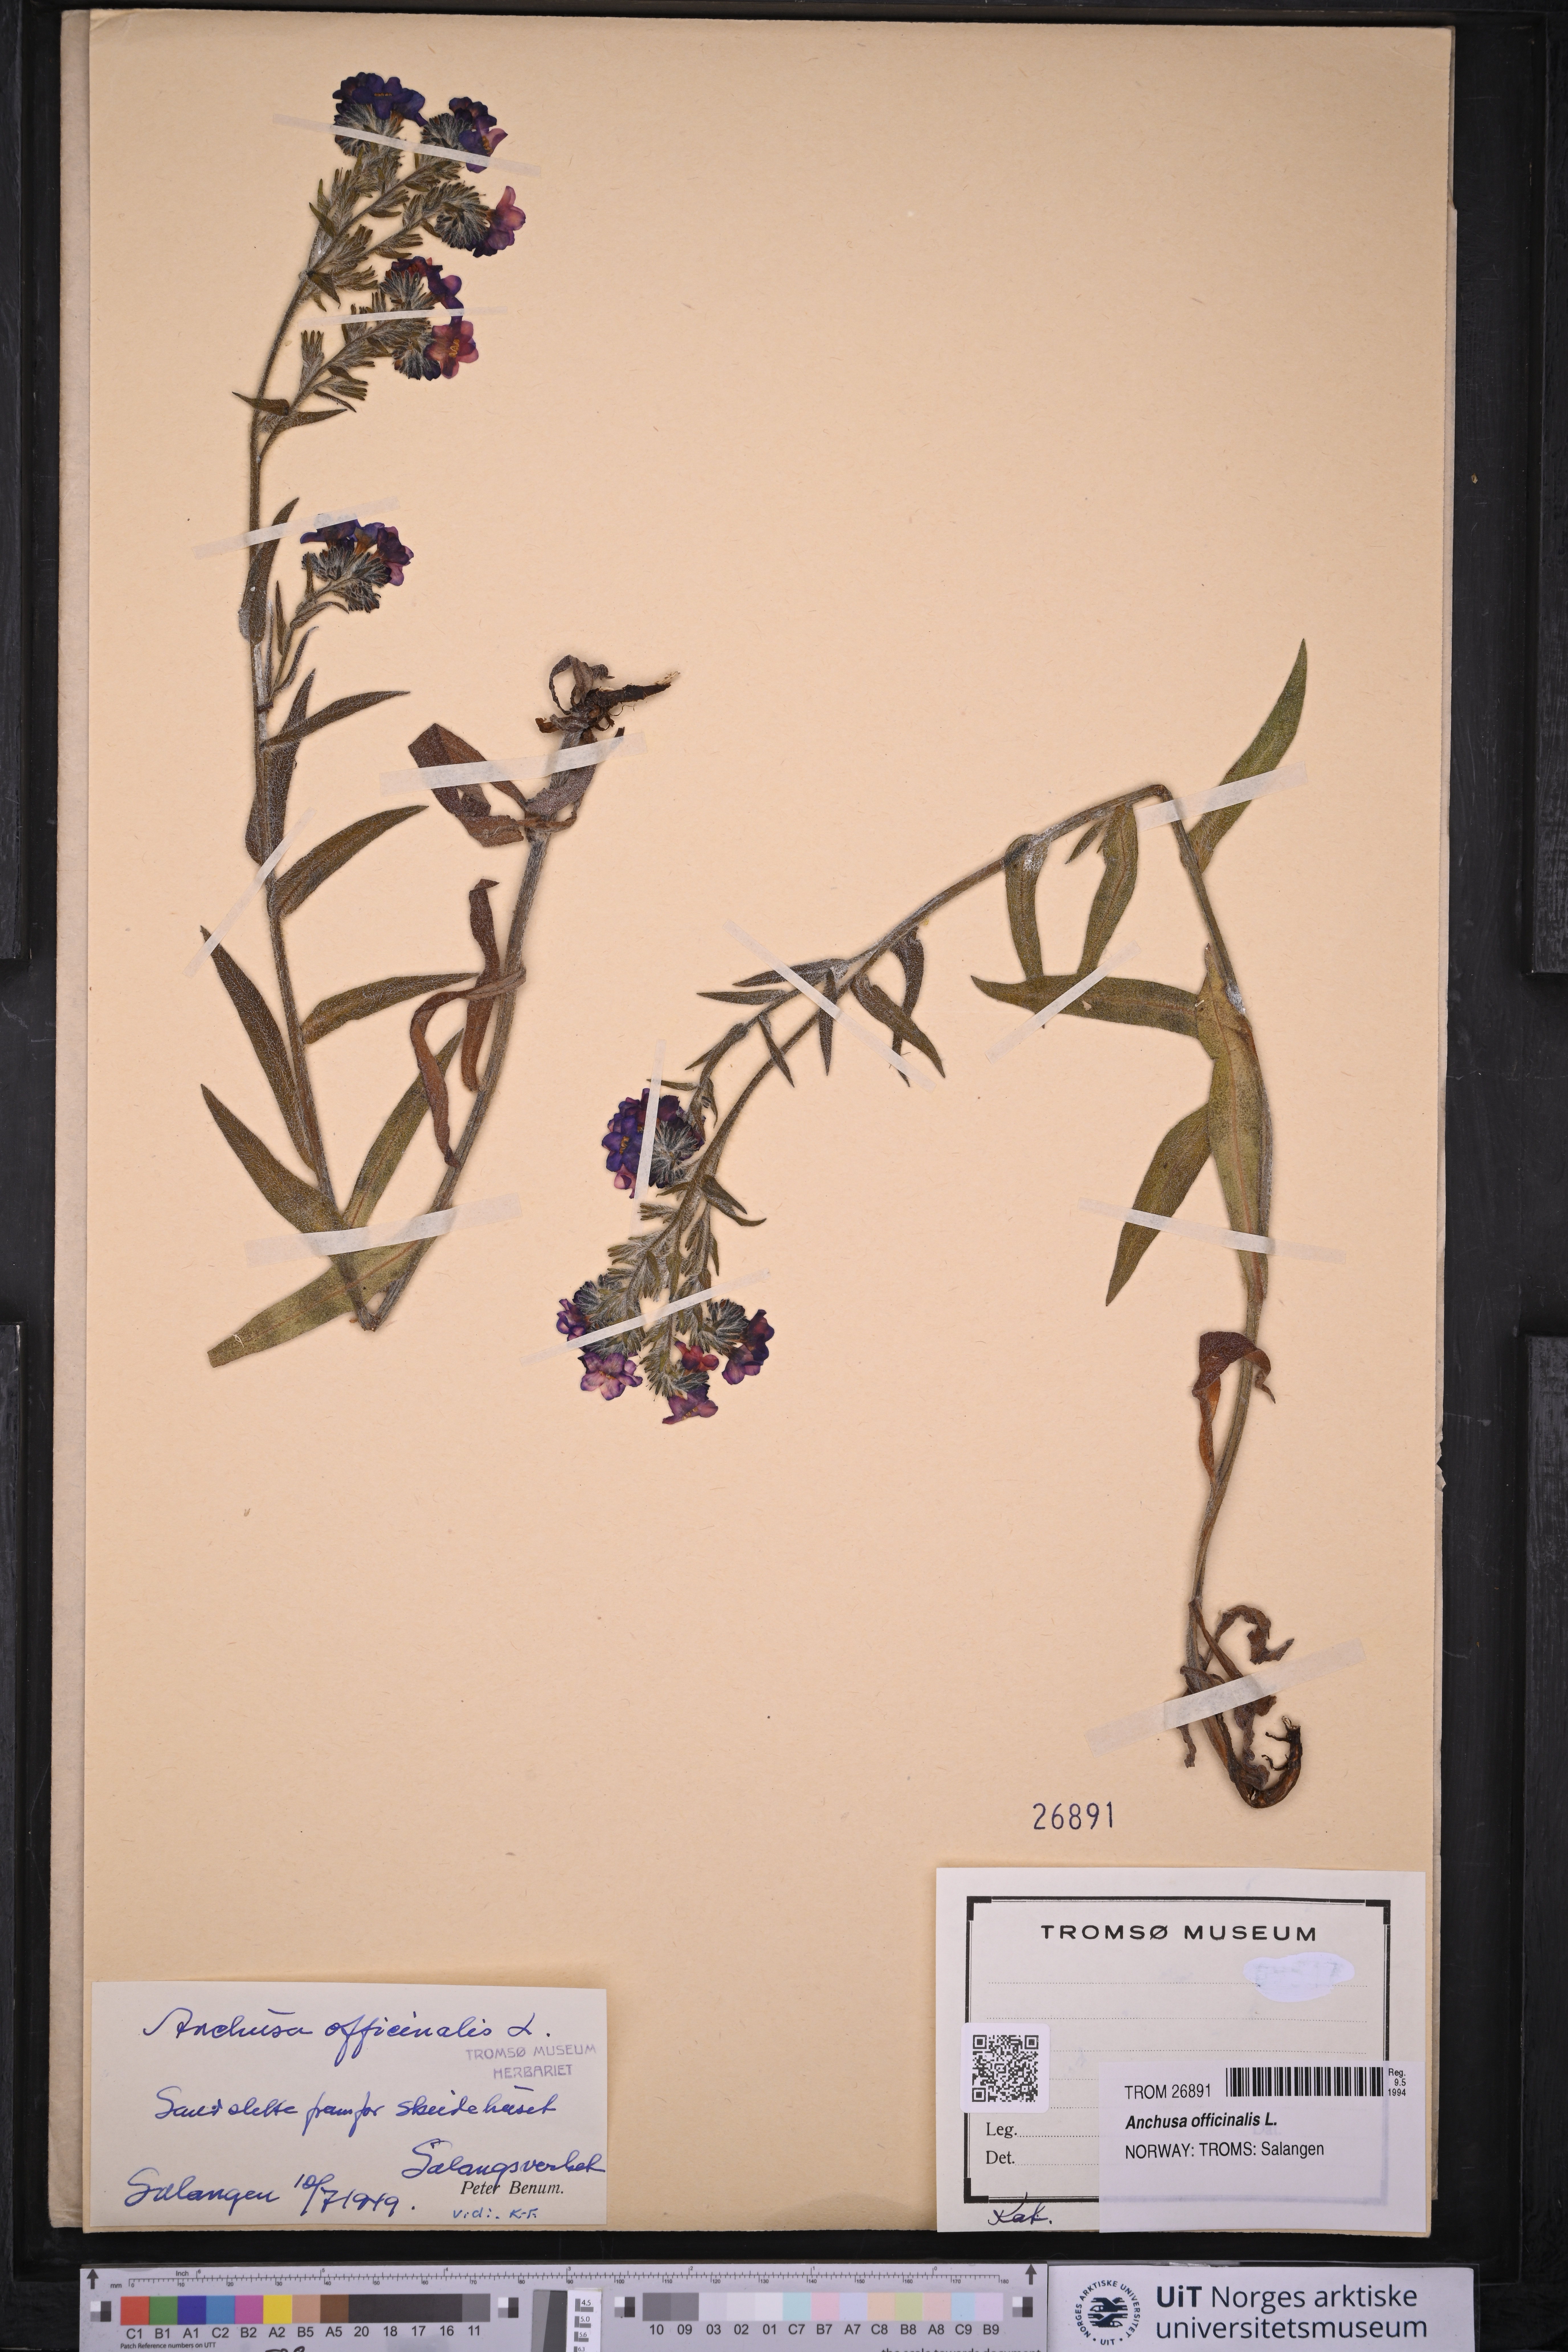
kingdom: Plantae
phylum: Tracheophyta
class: Magnoliopsida
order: Boraginales
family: Boraginaceae
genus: Anchusa
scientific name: Anchusa officinalis
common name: Alkanet
